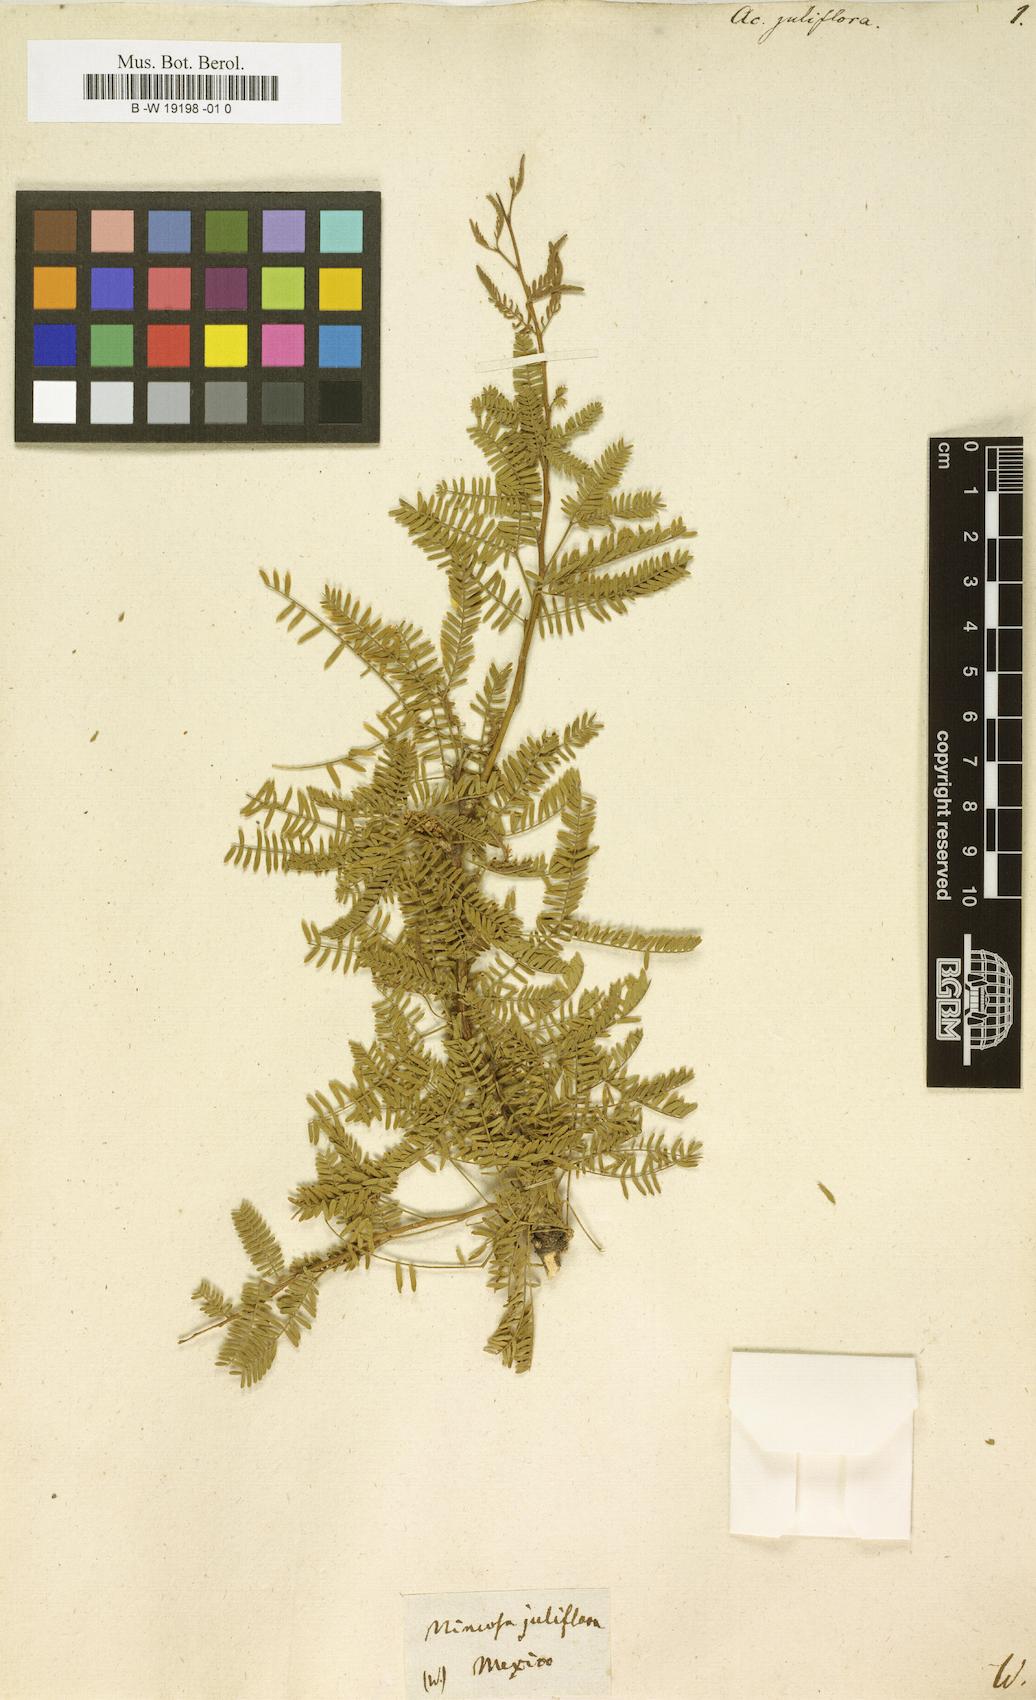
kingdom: Plantae
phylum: Tracheophyta
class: Magnoliopsida
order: Fabales
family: Fabaceae
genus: Prosopis
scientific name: Prosopis juliflora
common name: Mesquite
